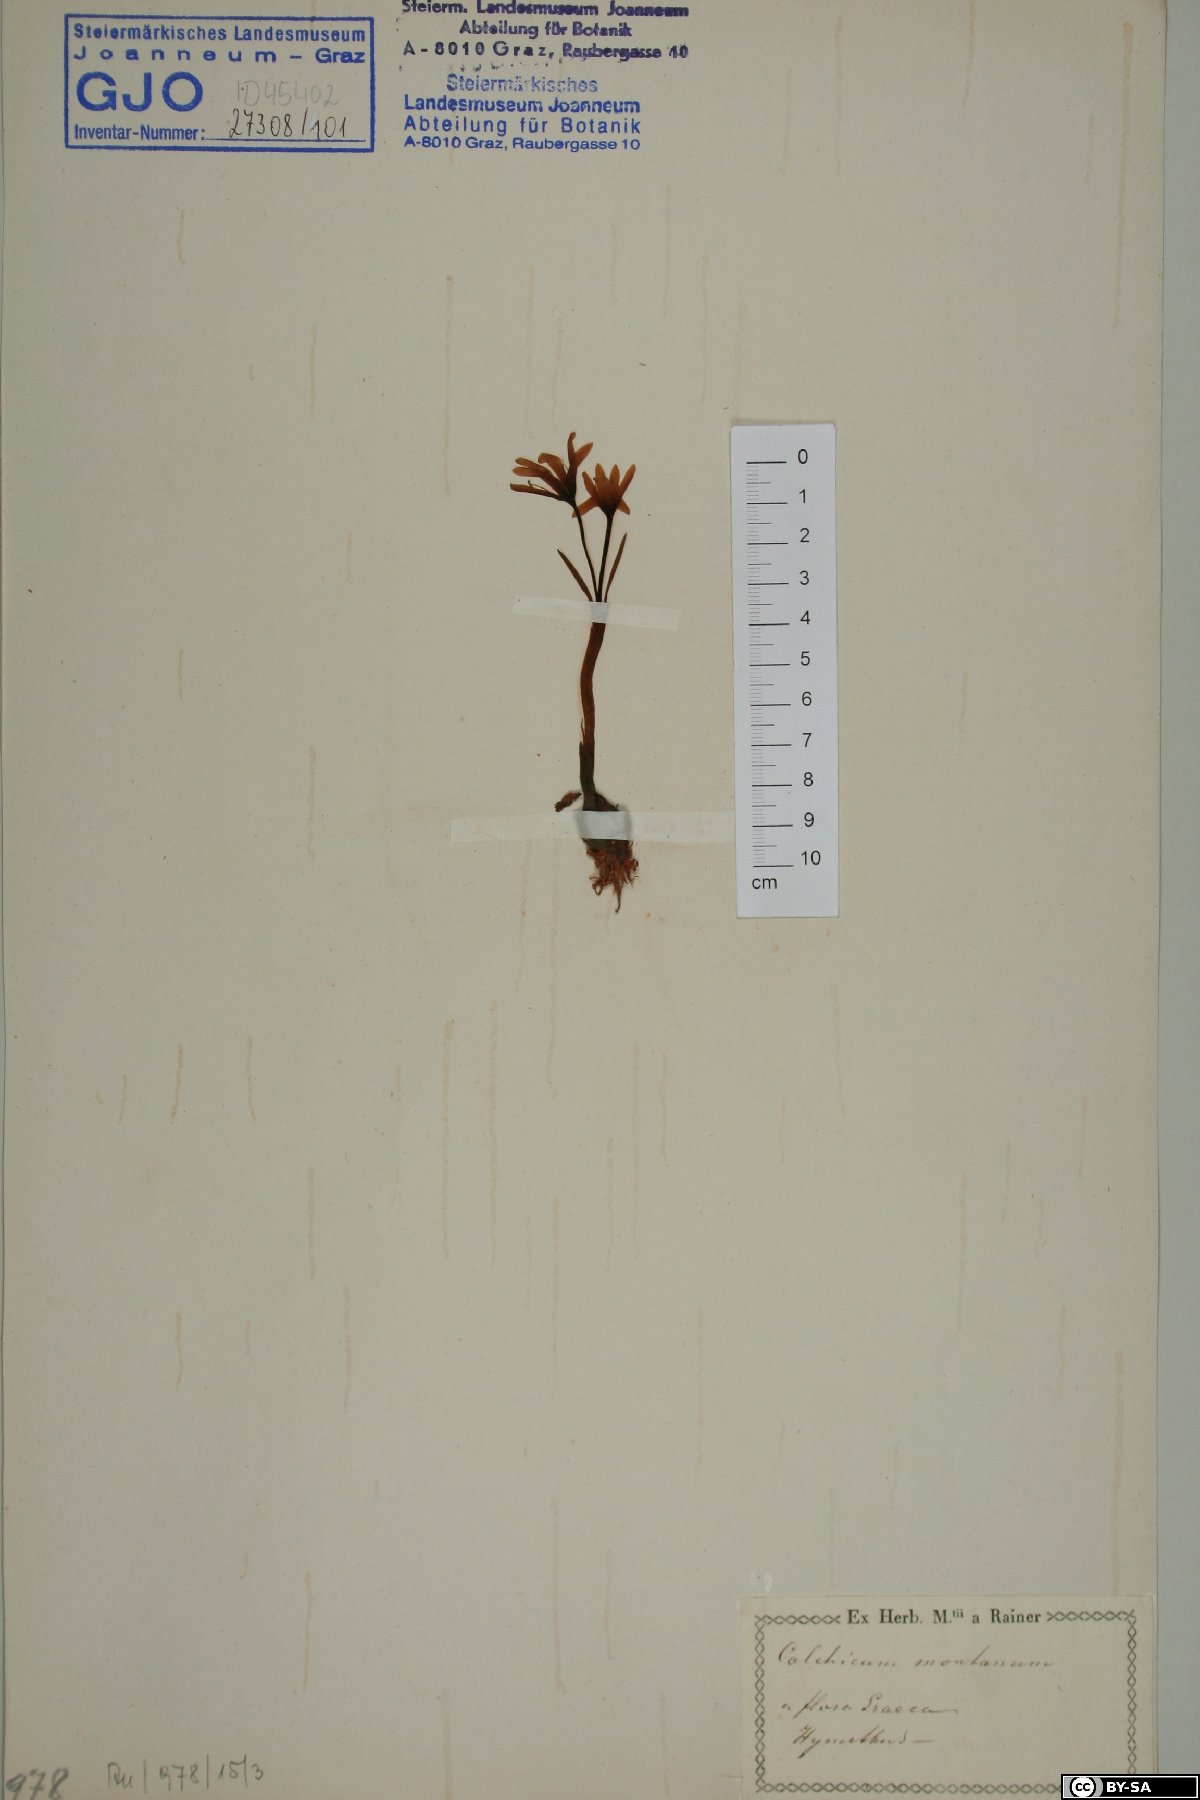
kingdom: Plantae
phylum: Tracheophyta
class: Liliopsida
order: Liliales
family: Colchicaceae
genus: Colchicum
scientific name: Colchicum montanum
